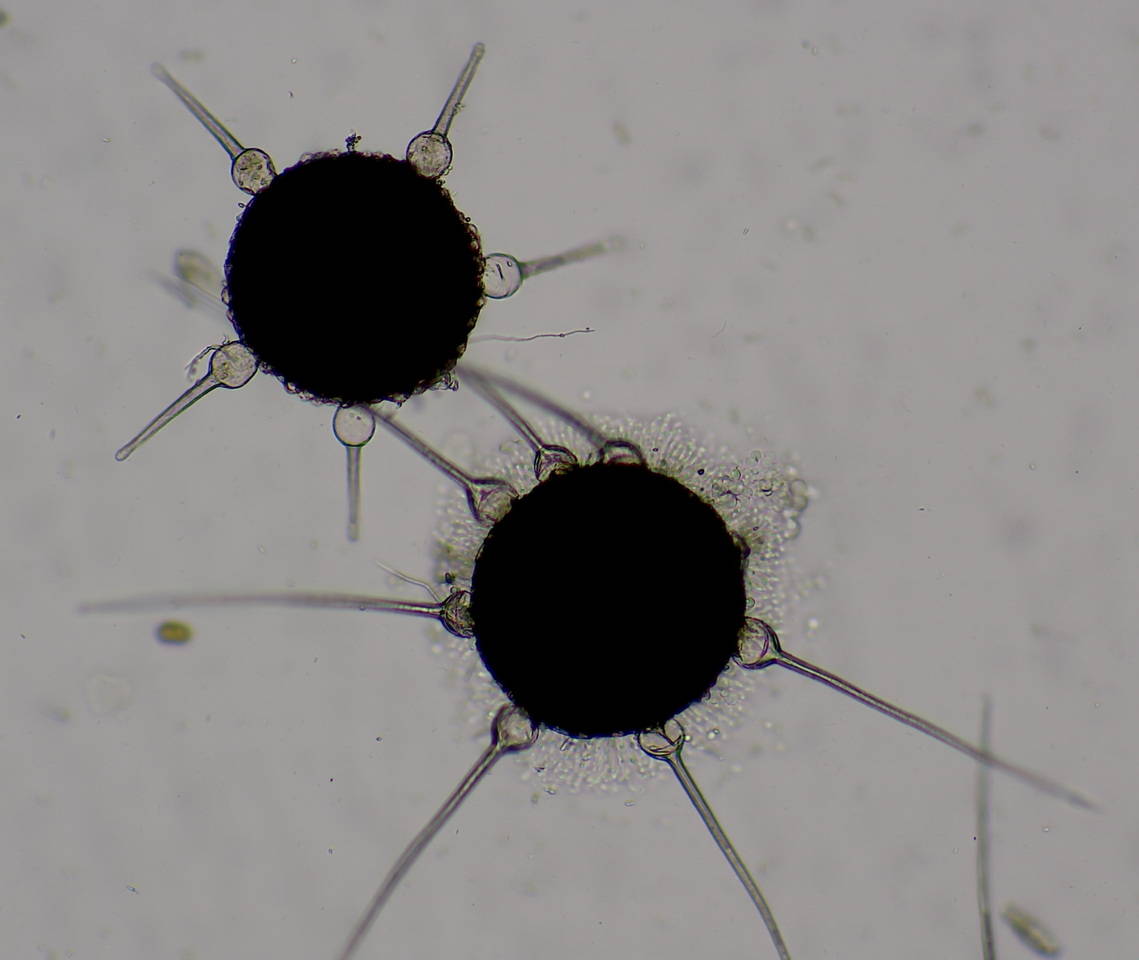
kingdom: Fungi
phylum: Ascomycota
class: Leotiomycetes
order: Helotiales
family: Erysiphaceae
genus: Phyllactinia
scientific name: Phyllactinia guttata
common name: hassel-meldug
